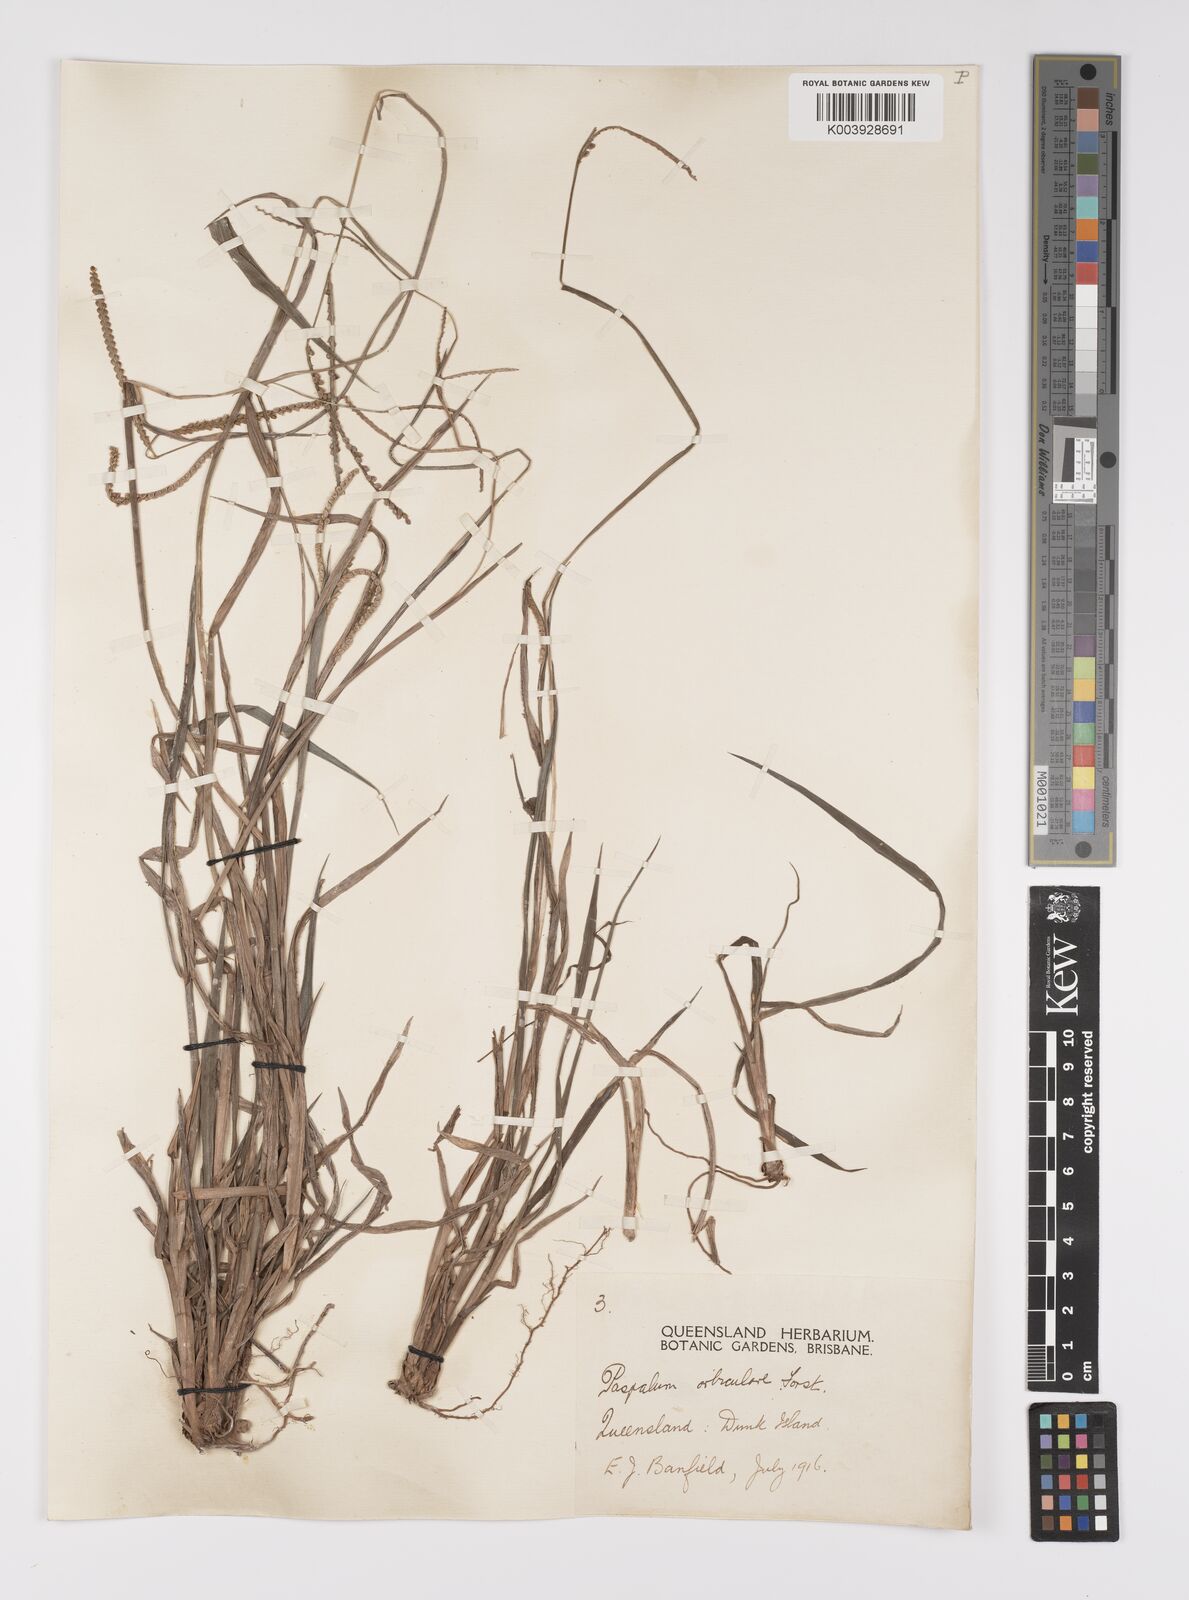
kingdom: Plantae
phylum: Tracheophyta
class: Liliopsida
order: Poales
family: Poaceae
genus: Paspalum
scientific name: Paspalum scrobiculatum
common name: Kodo millet
